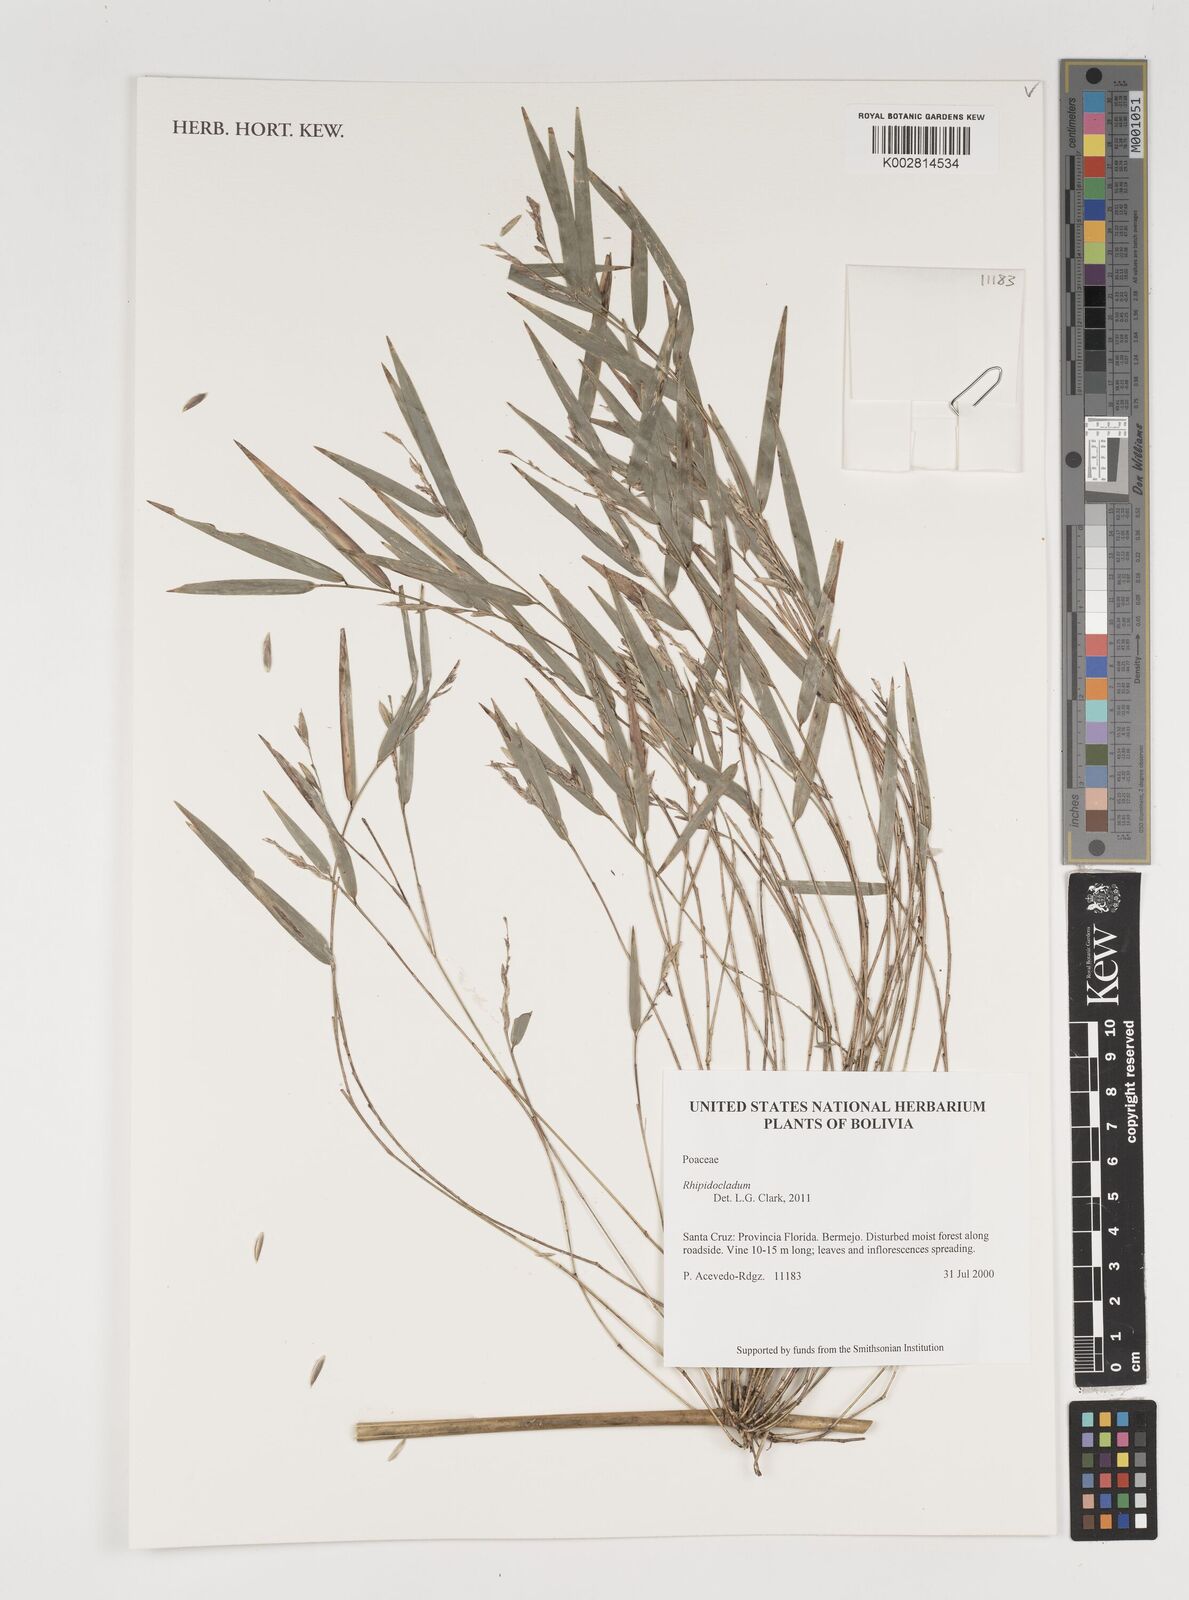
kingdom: Plantae
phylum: Tracheophyta
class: Liliopsida
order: Poales
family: Poaceae
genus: Rhipidocladum
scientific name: Rhipidocladum neumannii
